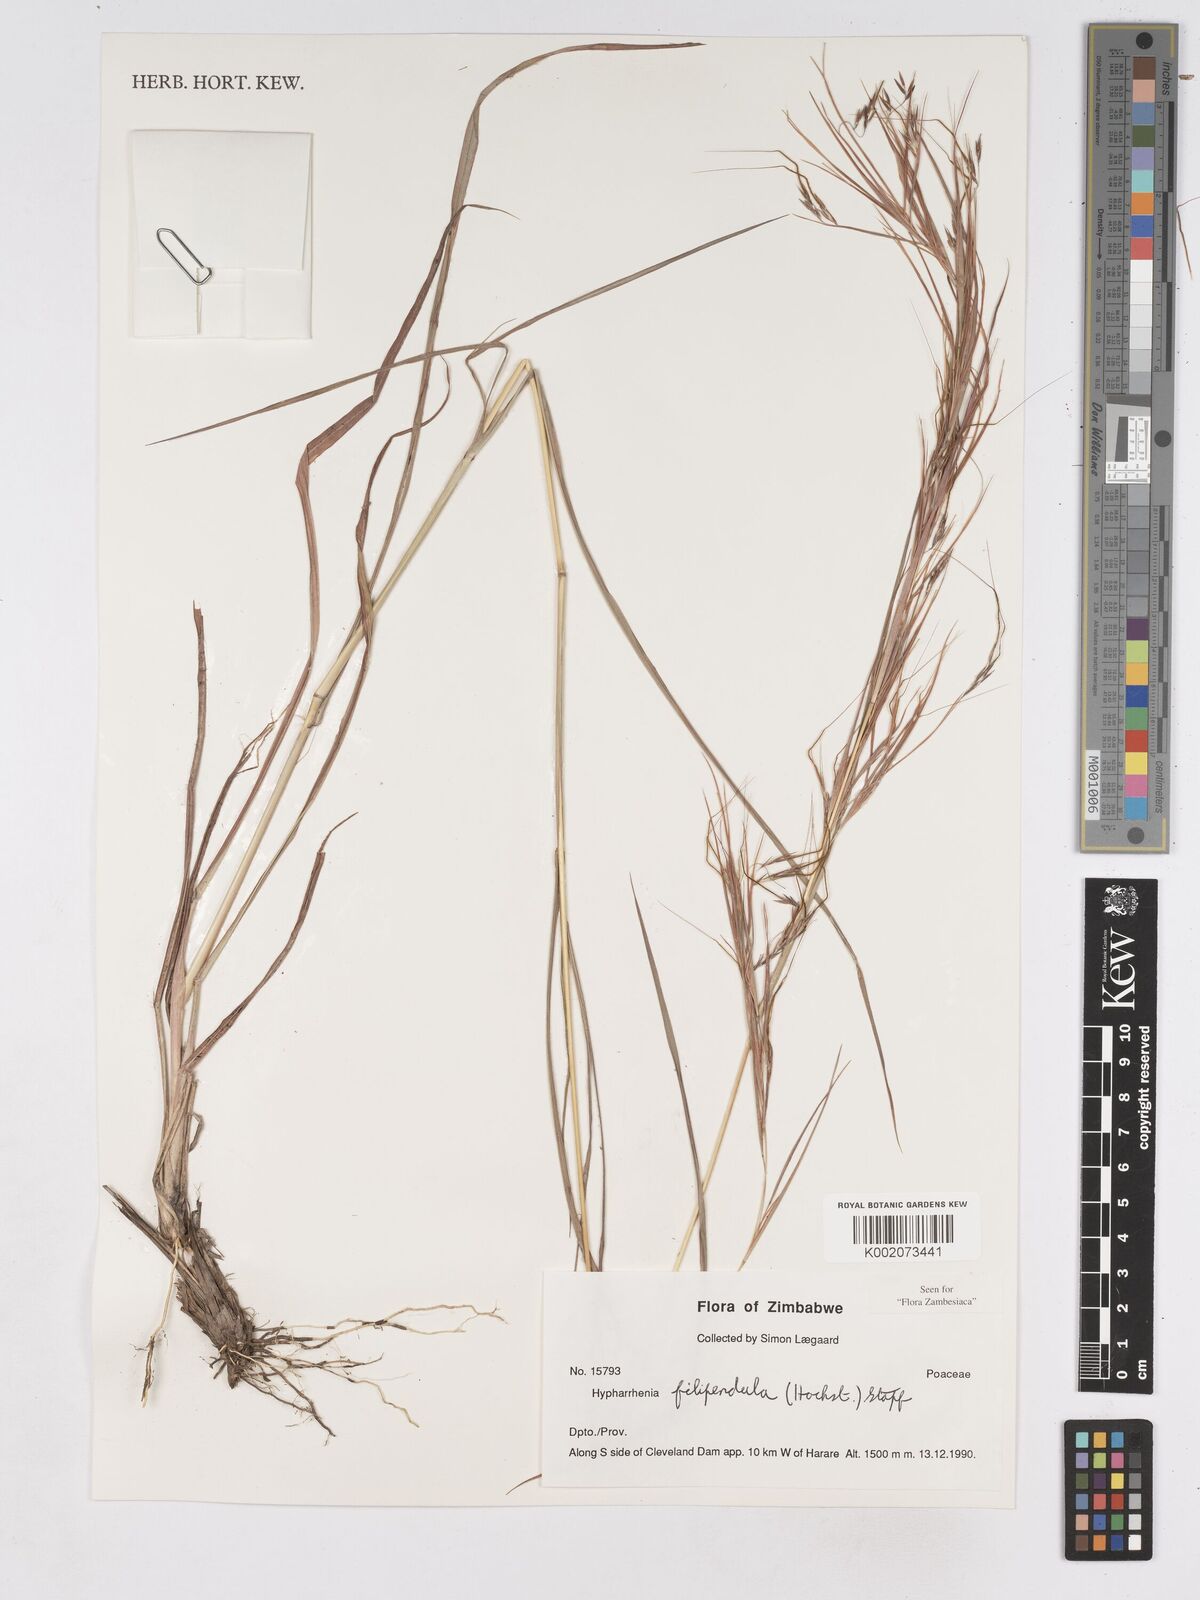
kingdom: Plantae
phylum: Tracheophyta
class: Liliopsida
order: Poales
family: Poaceae
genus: Hyparrhenia
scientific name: Hyparrhenia filipendula
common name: Tambookie grass
